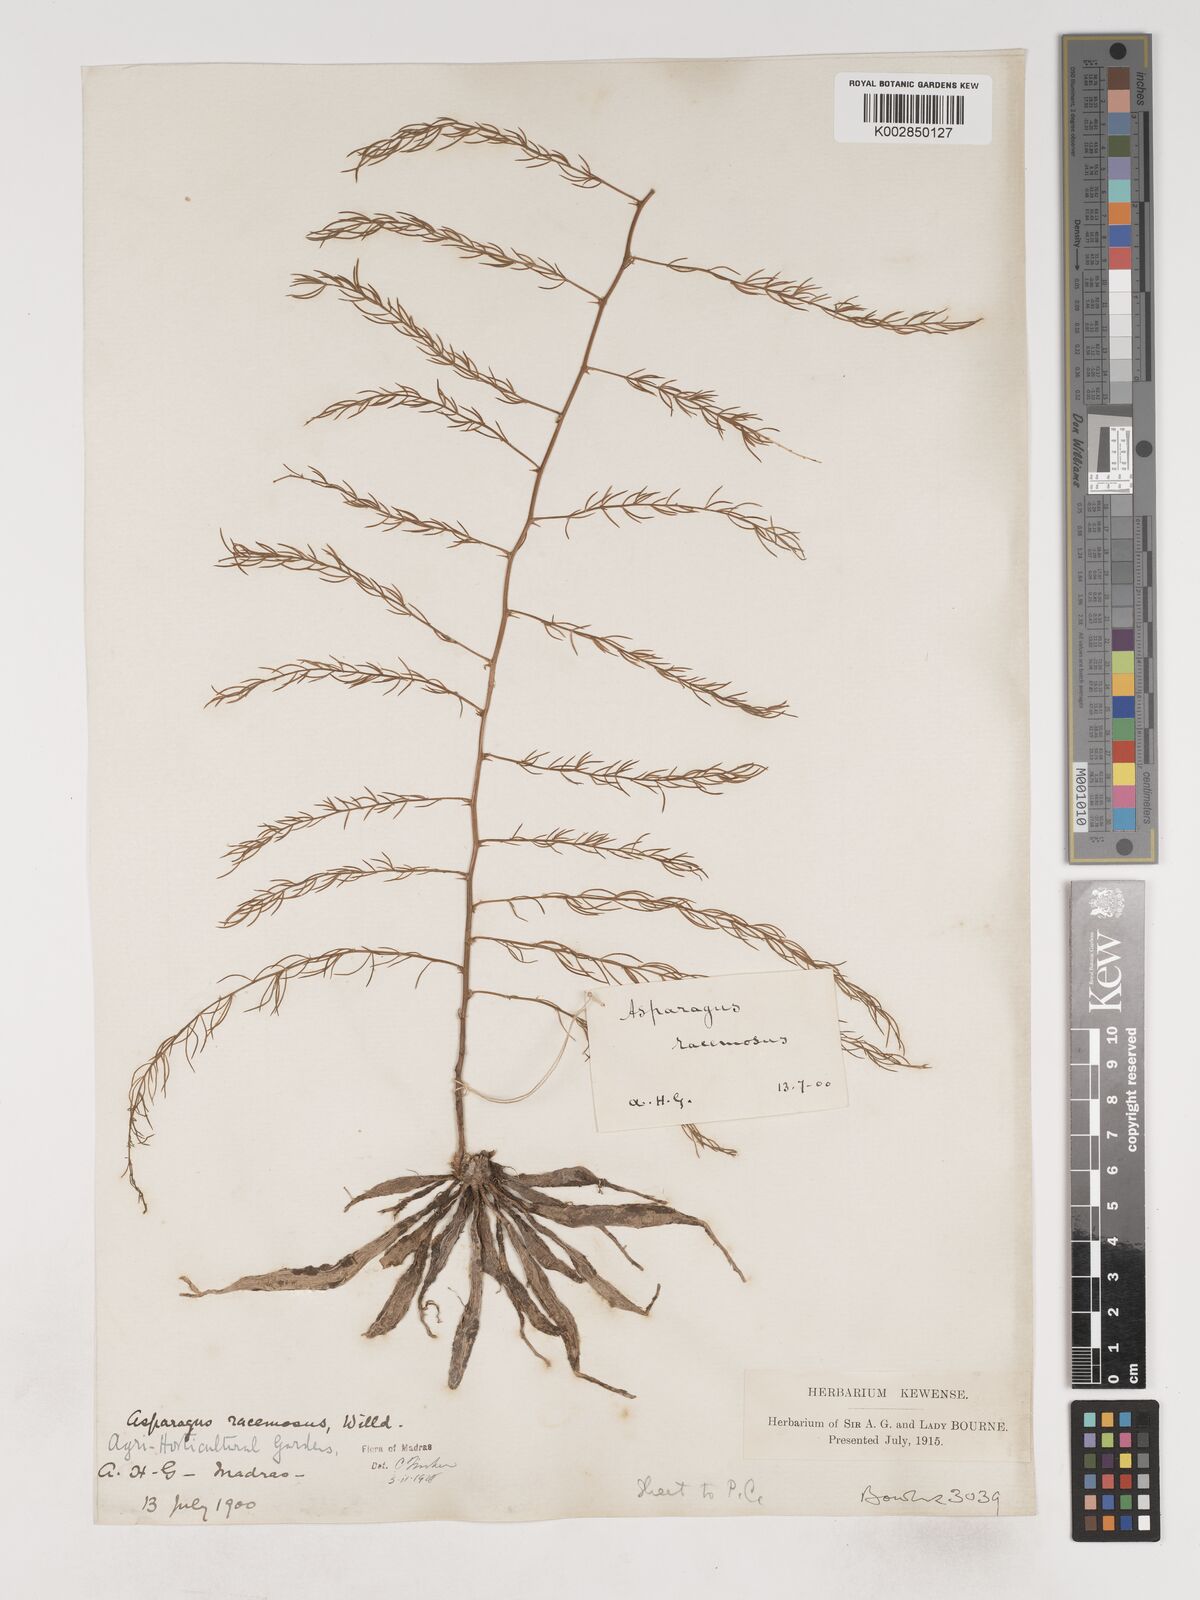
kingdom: Plantae
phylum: Tracheophyta
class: Liliopsida
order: Asparagales
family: Asparagaceae
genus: Asparagus
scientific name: Asparagus racemosus
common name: Asparagus-fern
